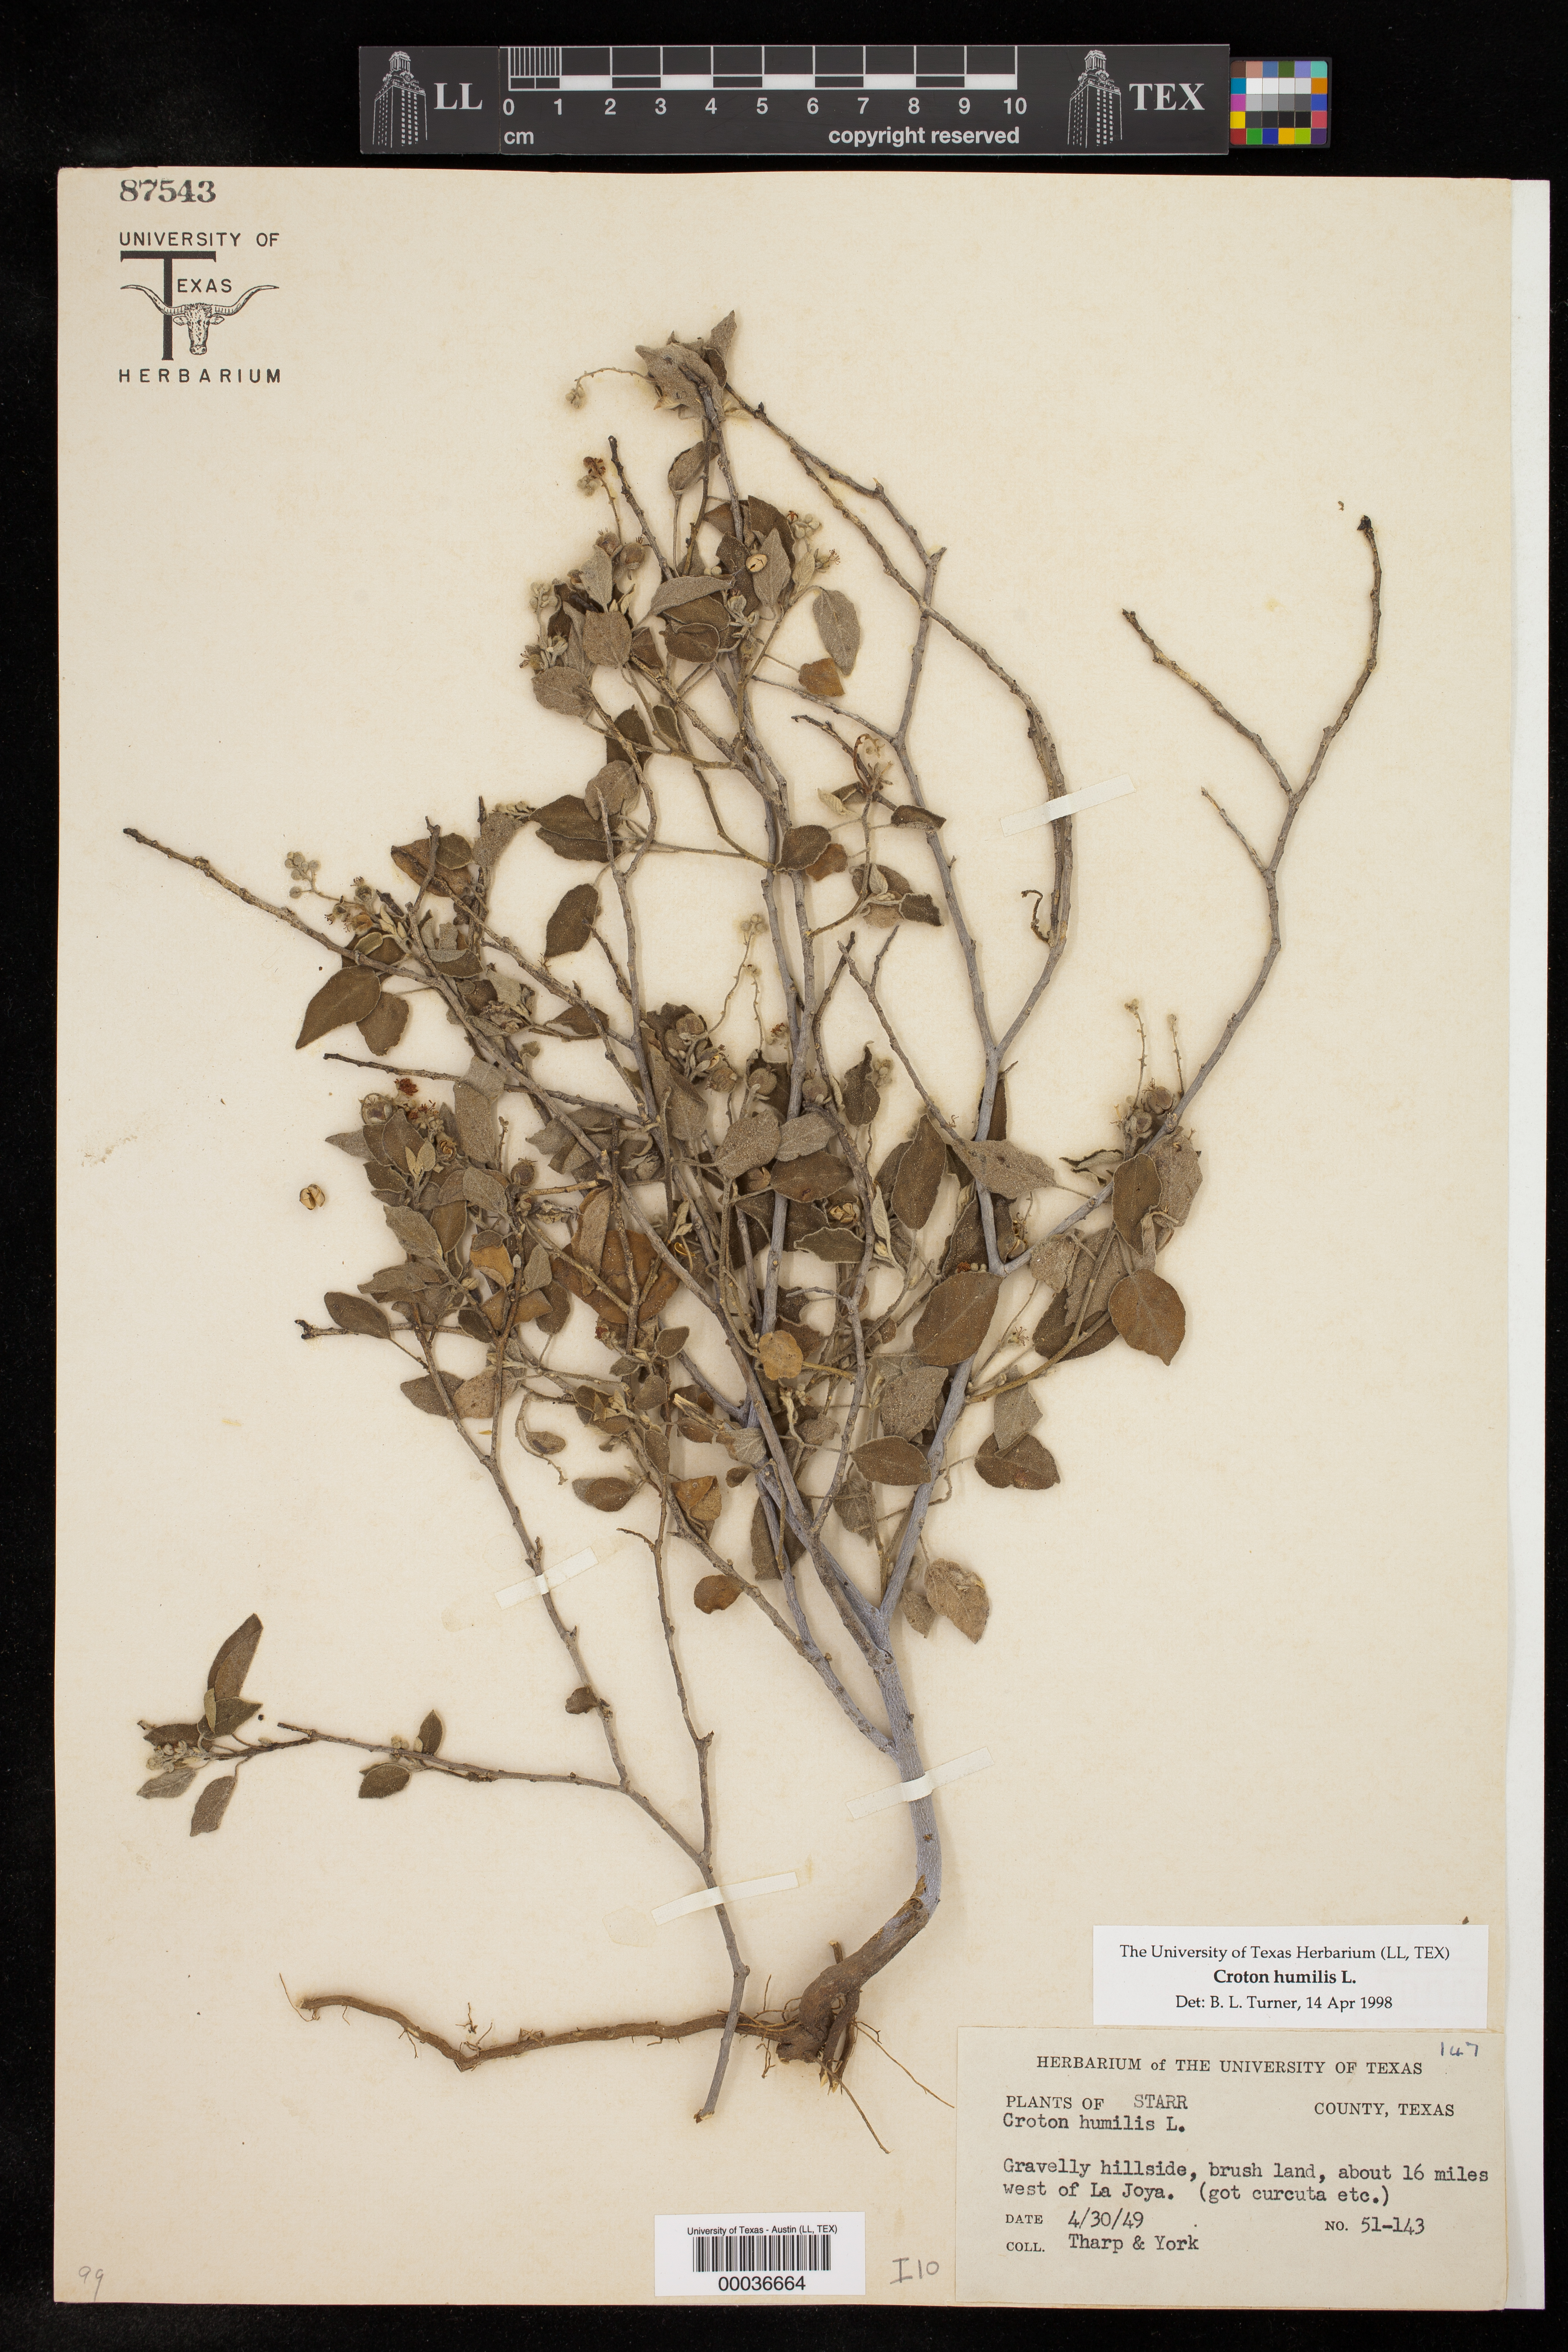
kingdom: Plantae
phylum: Tracheophyta
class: Magnoliopsida
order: Malpighiales
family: Euphorbiaceae
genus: Croton
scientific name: Croton humilis
